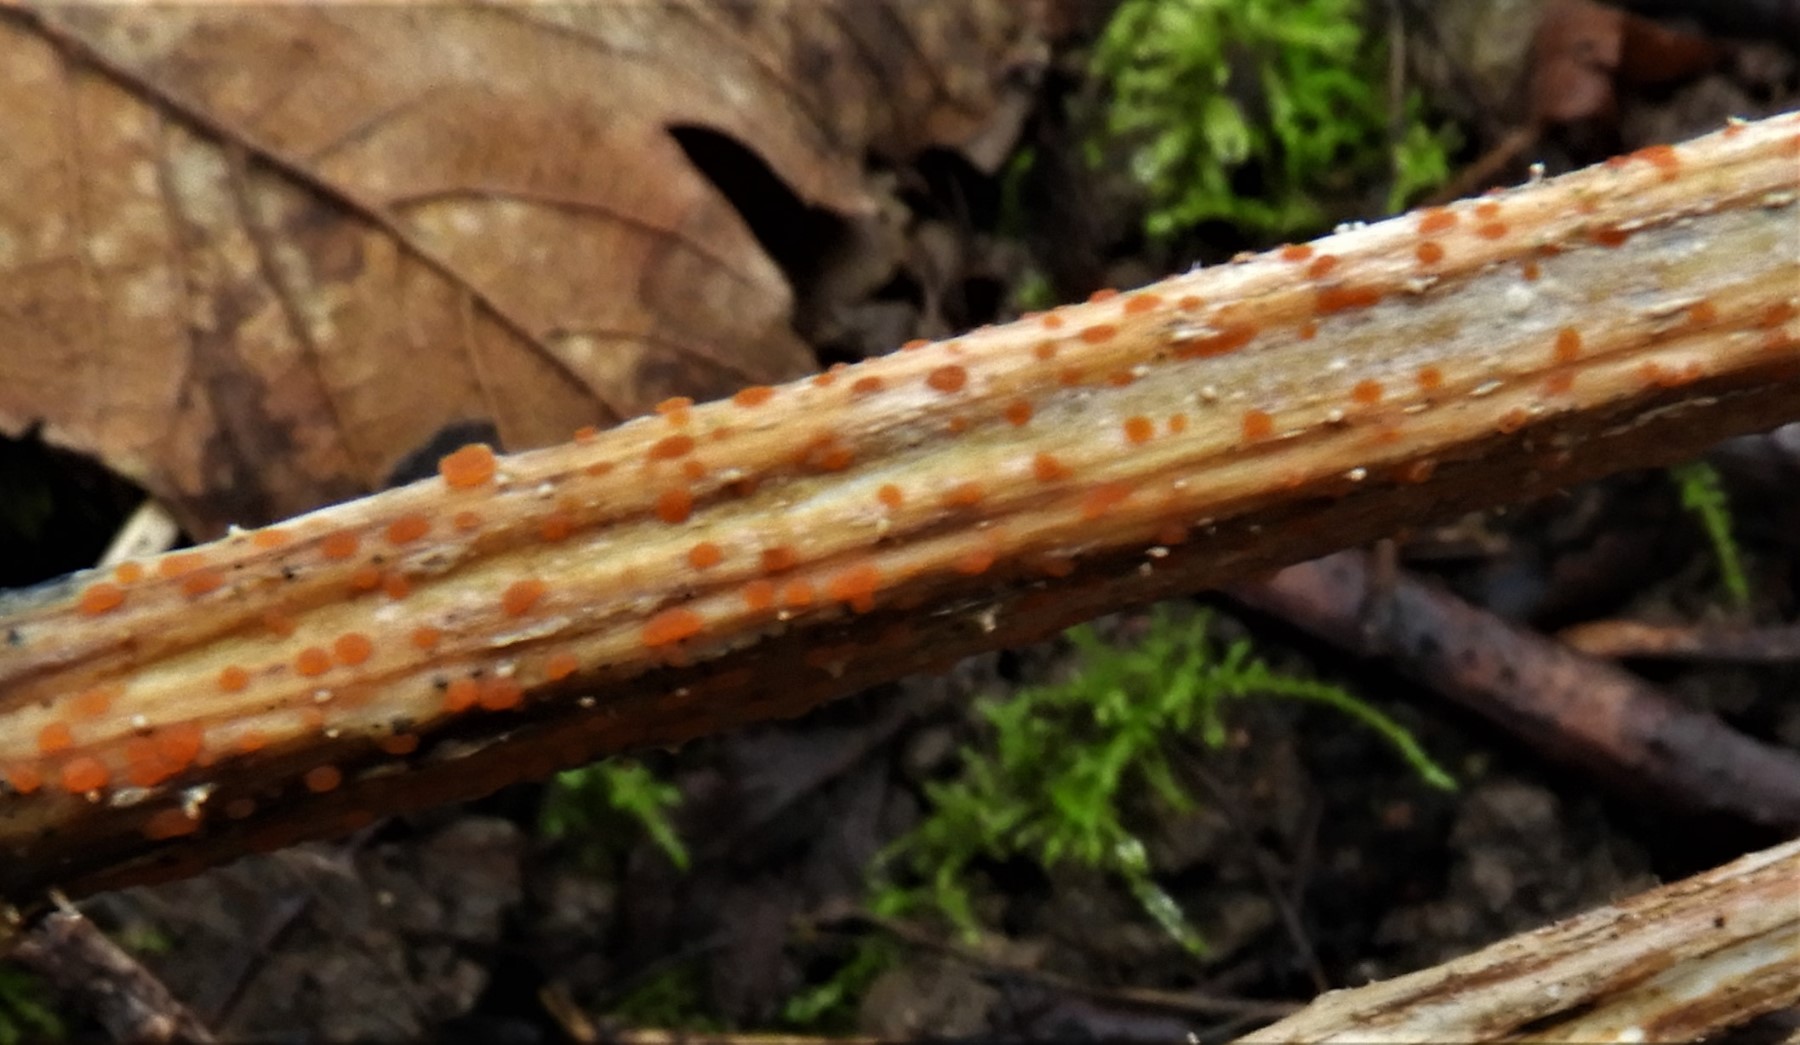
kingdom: Fungi
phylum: Ascomycota
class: Leotiomycetes
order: Helotiales
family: Calloriaceae
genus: Calloria
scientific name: Calloria urticae
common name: nælde-orangeskive
